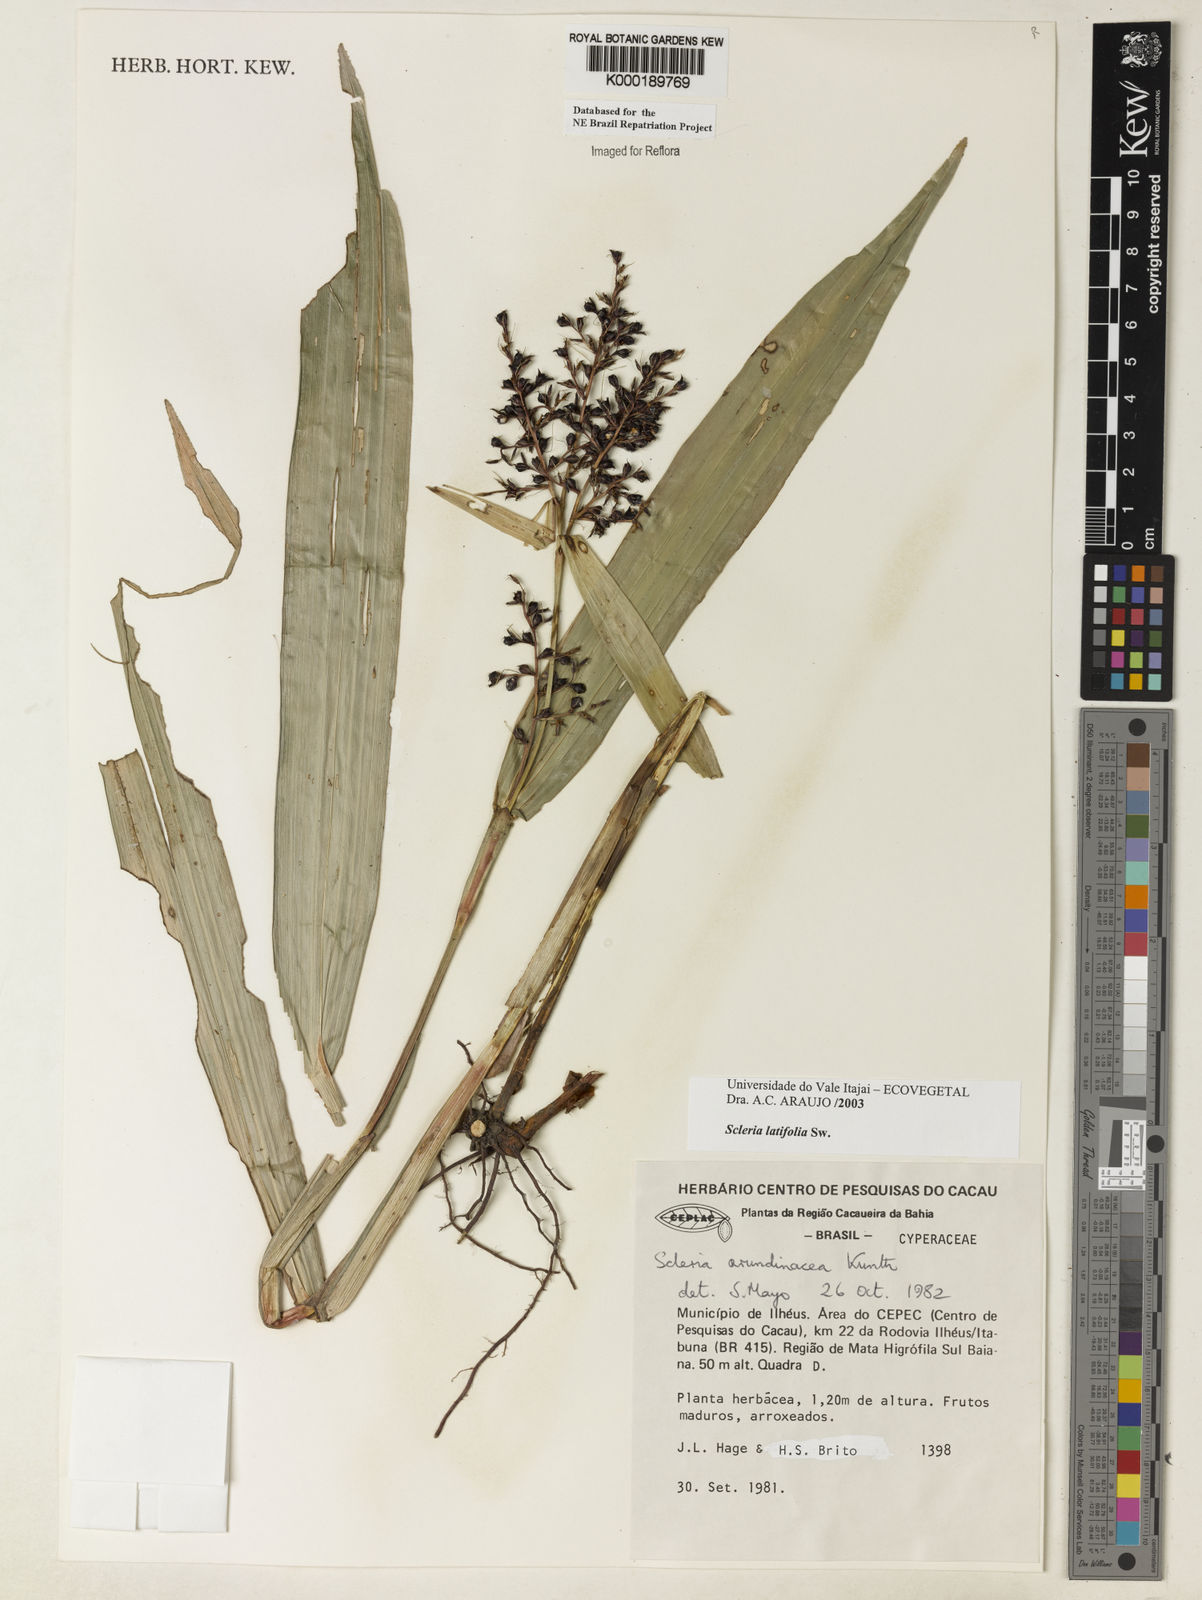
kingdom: Plantae
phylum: Tracheophyta
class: Liliopsida
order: Poales
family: Cyperaceae
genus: Scleria
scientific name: Scleria latifolia
